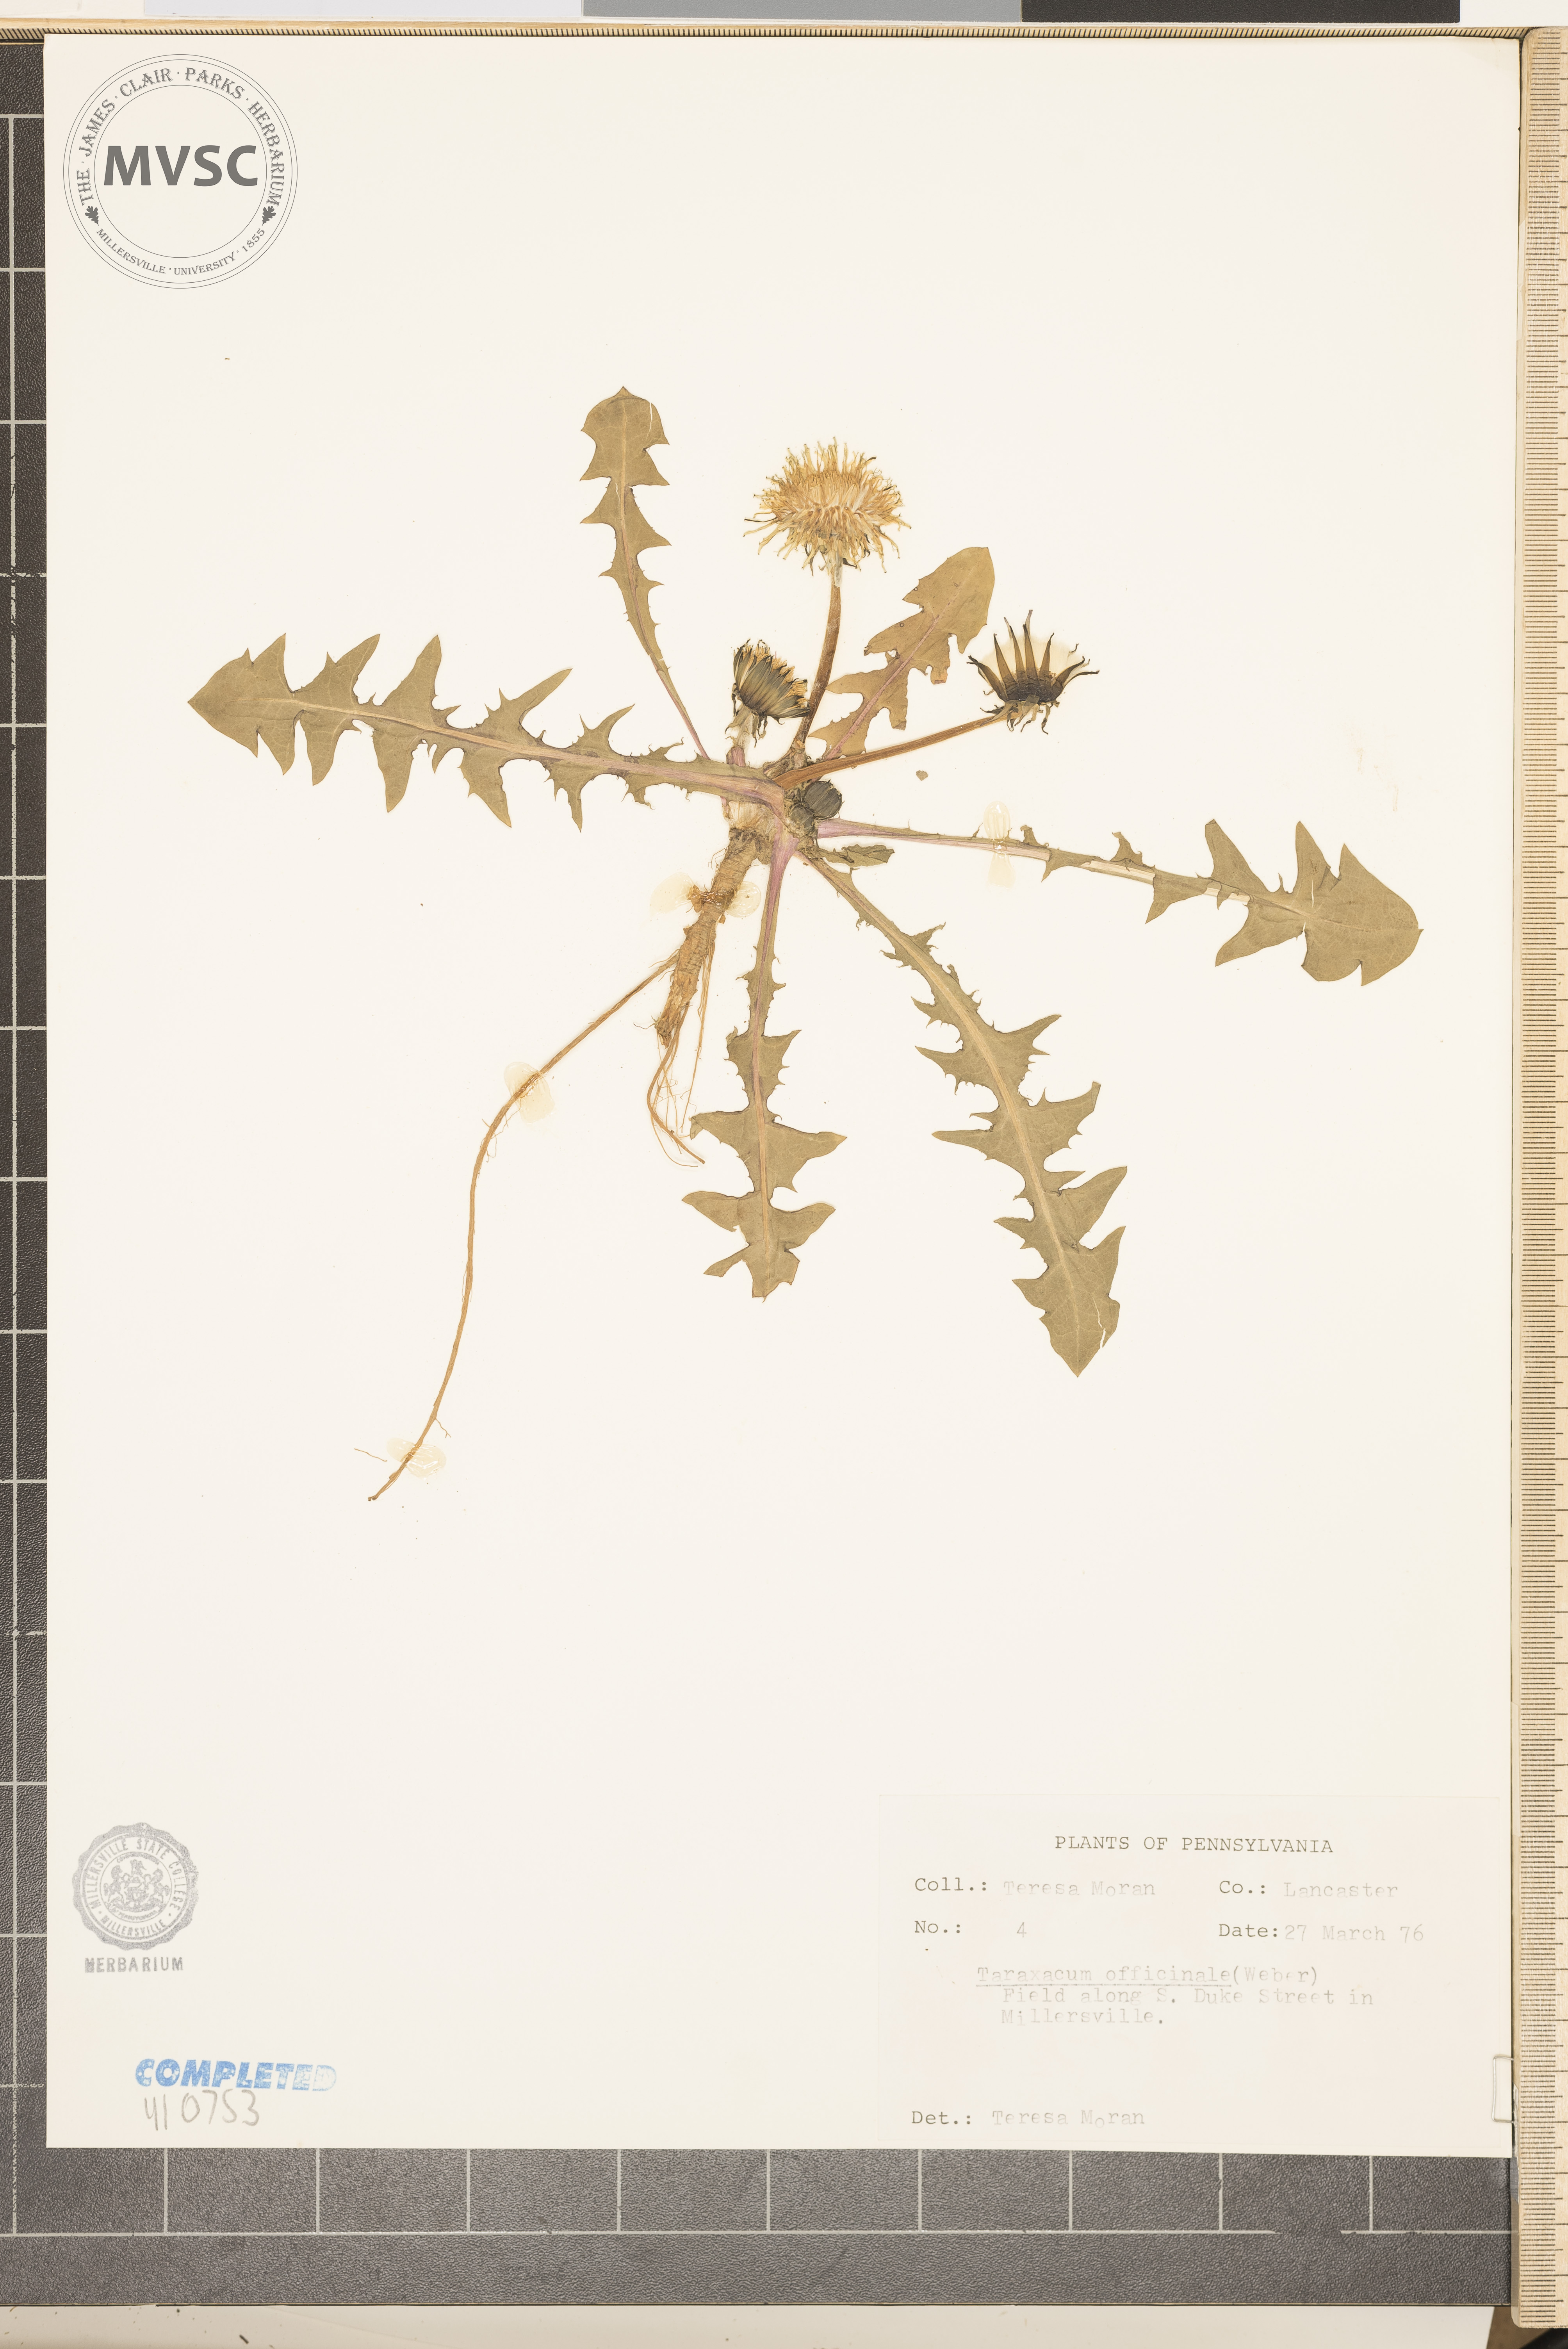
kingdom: Plantae
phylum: Tracheophyta
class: Magnoliopsida
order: Asterales
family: Asteraceae
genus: Taraxacum
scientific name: Taraxacum officinale
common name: Common dandelion
